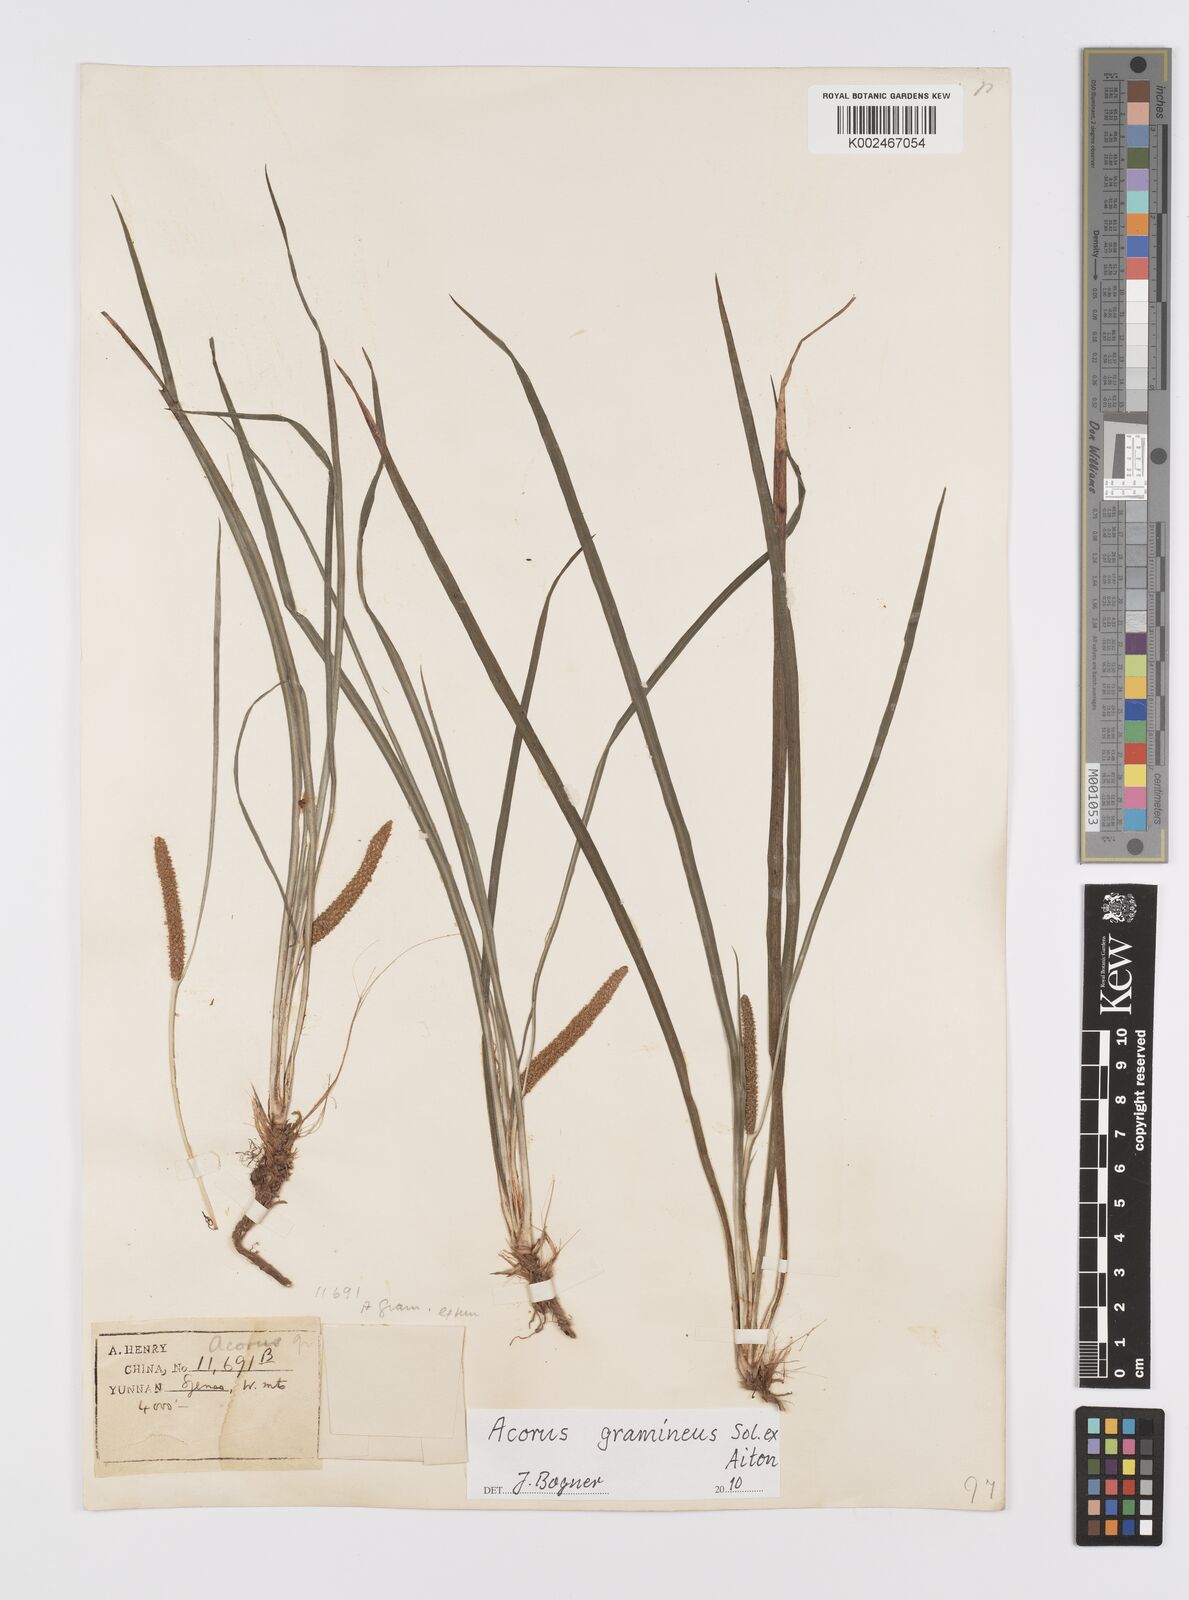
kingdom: Plantae
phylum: Tracheophyta
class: Liliopsida
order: Acorales
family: Acoraceae
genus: Acorus
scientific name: Acorus gramineus
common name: Slender sweet-flag
